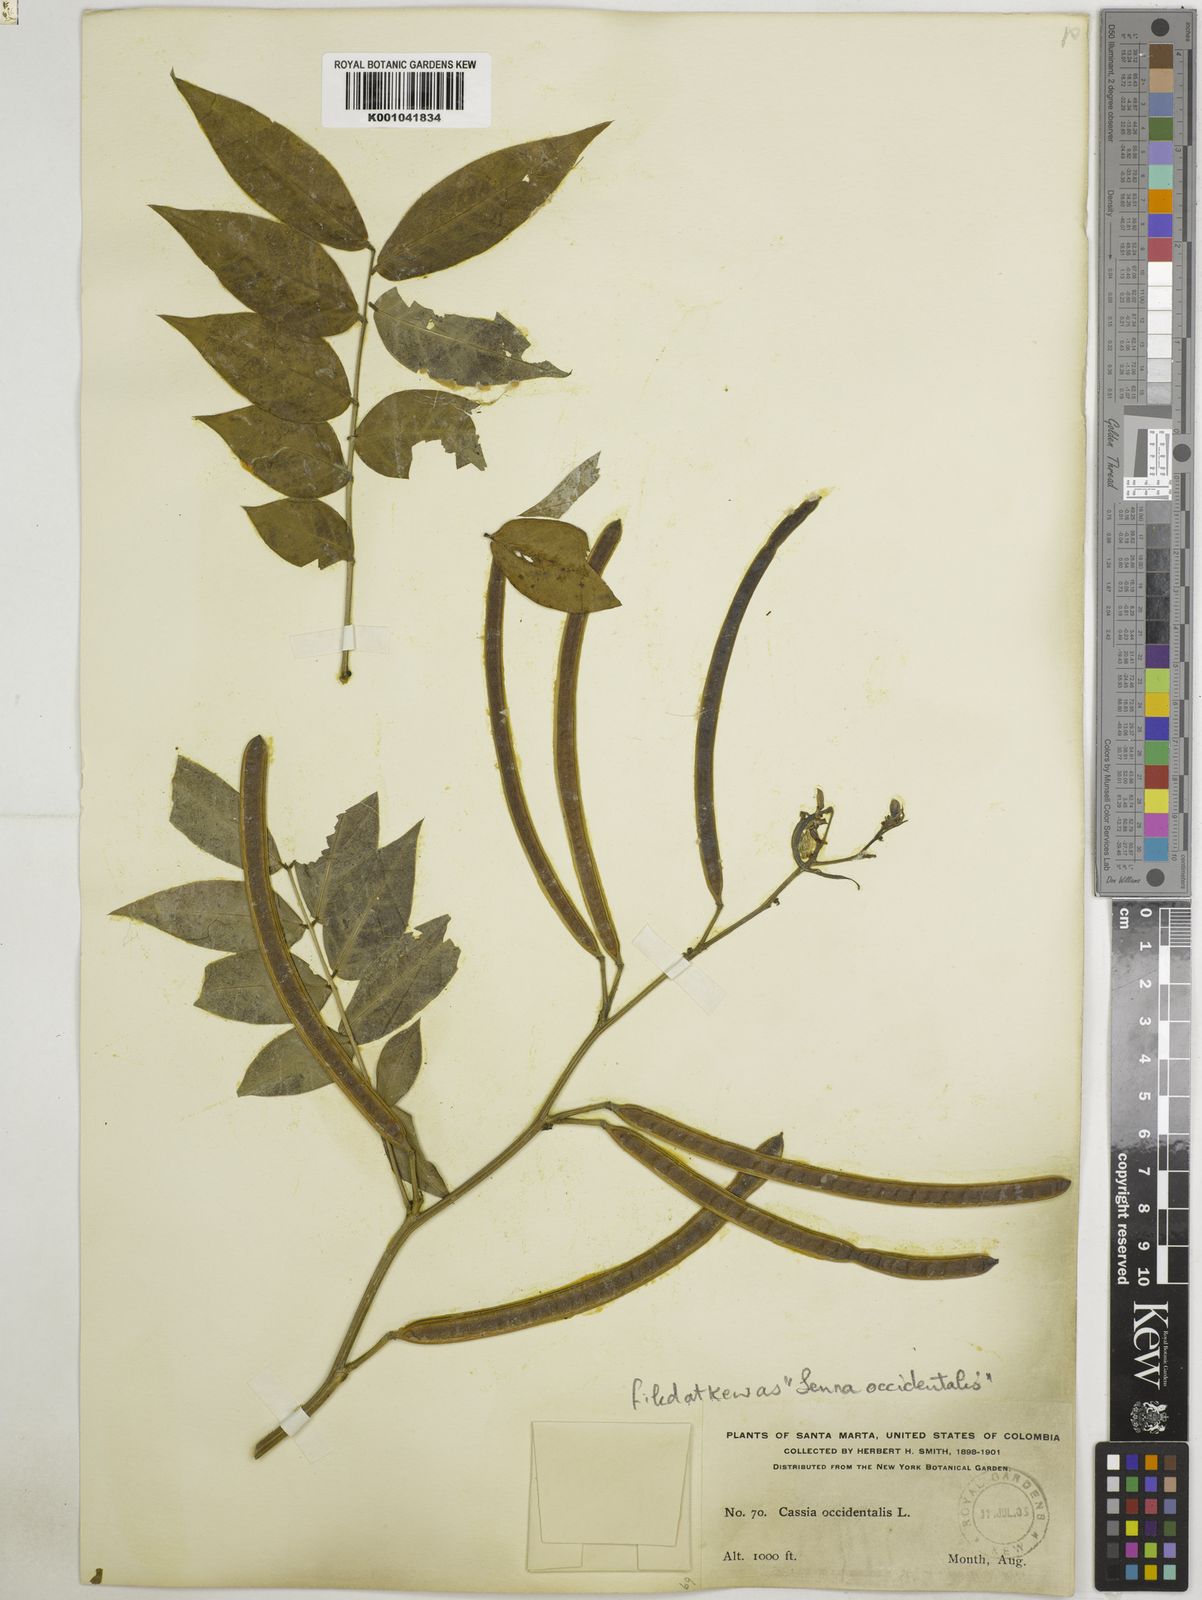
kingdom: Plantae
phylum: Tracheophyta
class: Magnoliopsida
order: Fabales
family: Fabaceae
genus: Senna
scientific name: Senna occidentalis
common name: Septicweed
